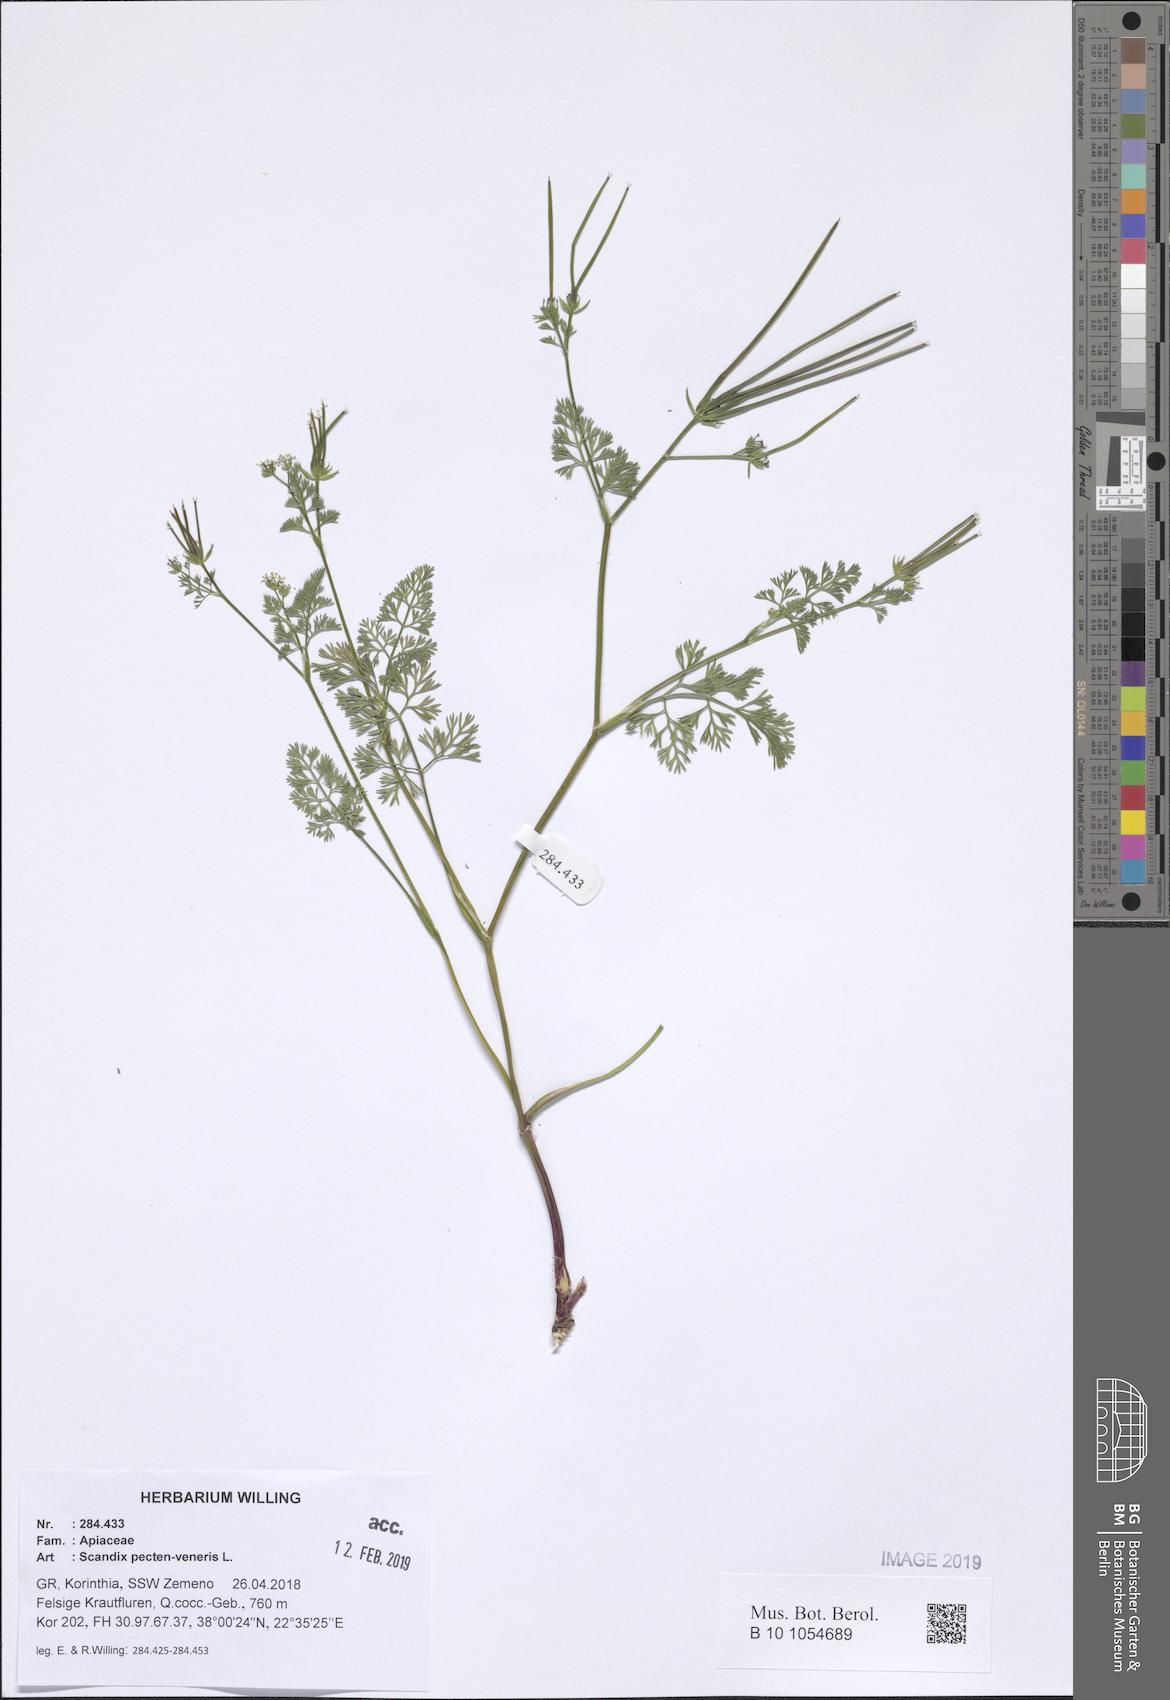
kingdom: Plantae
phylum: Tracheophyta
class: Magnoliopsida
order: Apiales
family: Apiaceae
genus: Scandix
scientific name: Scandix pecten-veneris
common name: Shepherd's-needle
